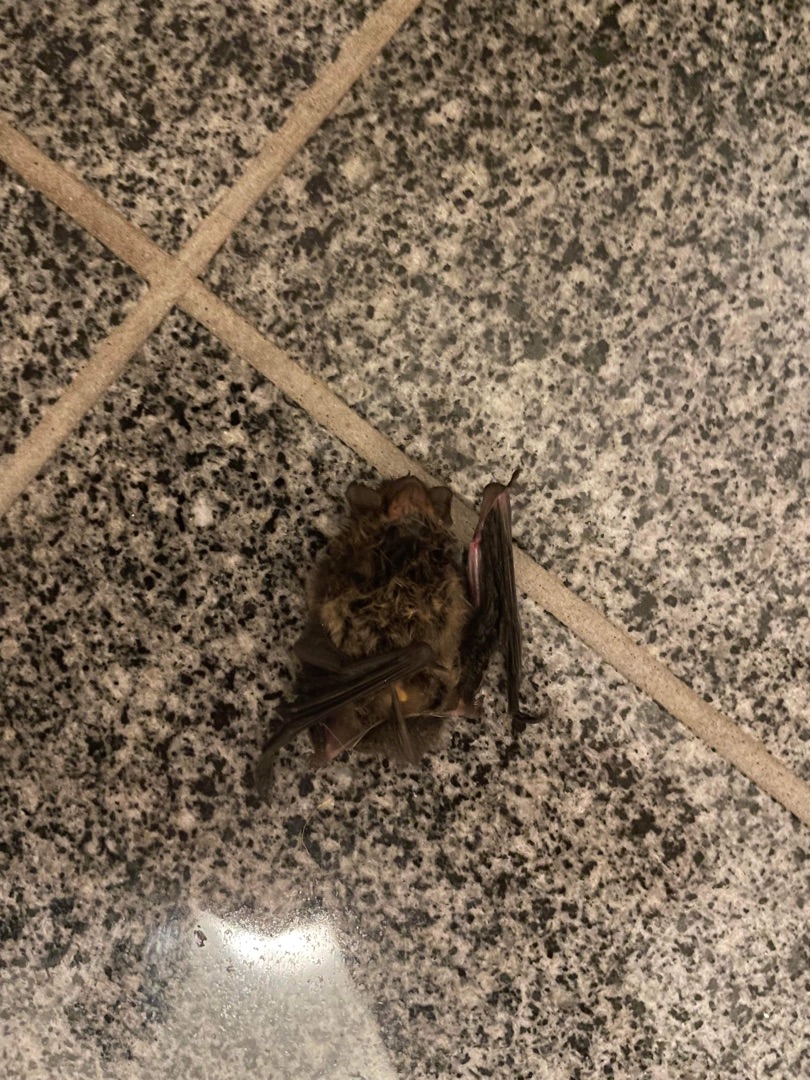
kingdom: Animalia
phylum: Chordata
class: Mammalia
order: Chiroptera
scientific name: Chiroptera
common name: Flagermus
